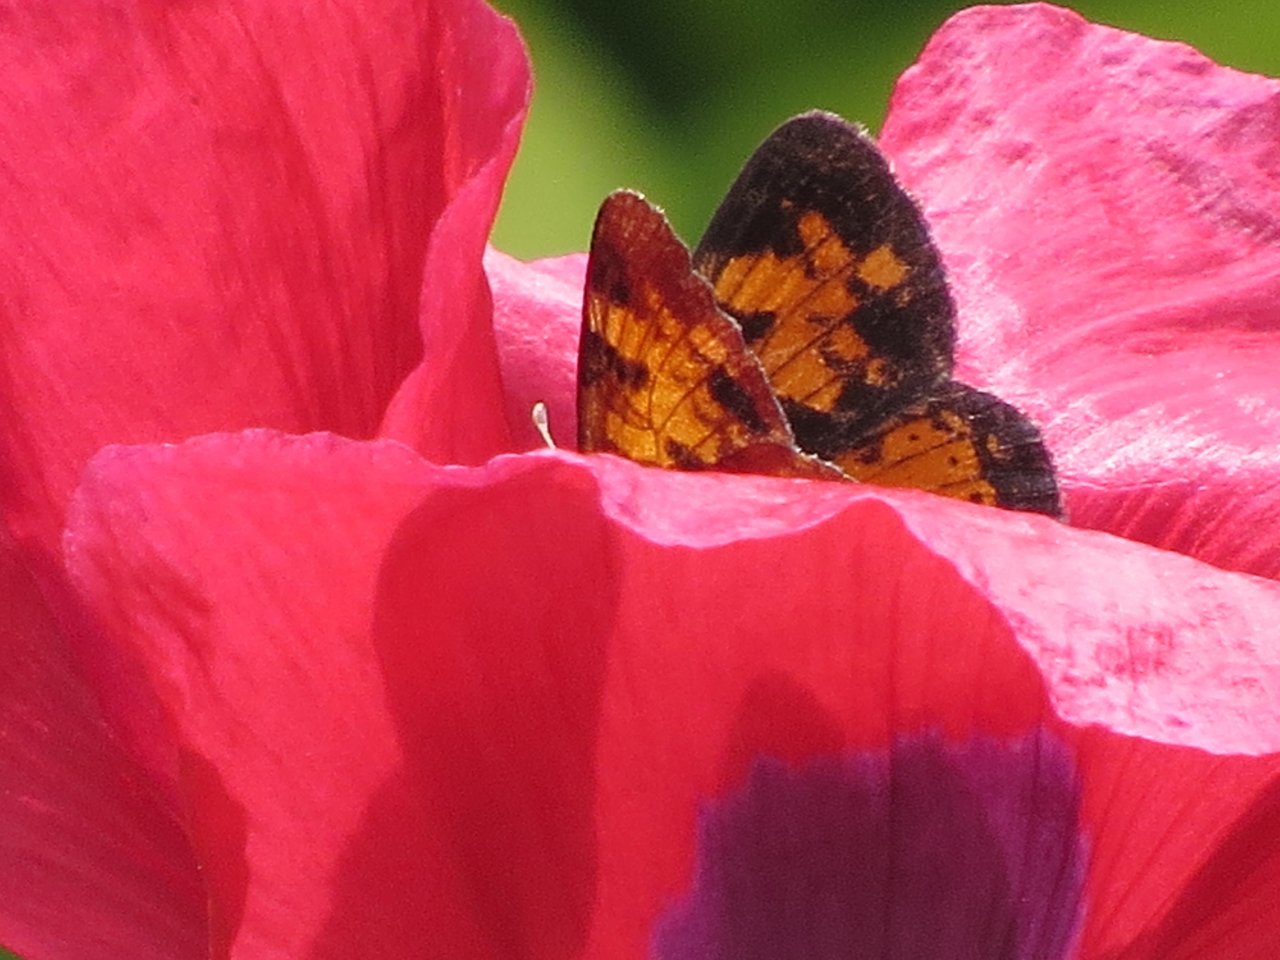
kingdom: Animalia
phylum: Arthropoda
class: Insecta
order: Lepidoptera
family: Nymphalidae
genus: Phyciodes
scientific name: Phyciodes tharos
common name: Northern Crescent
